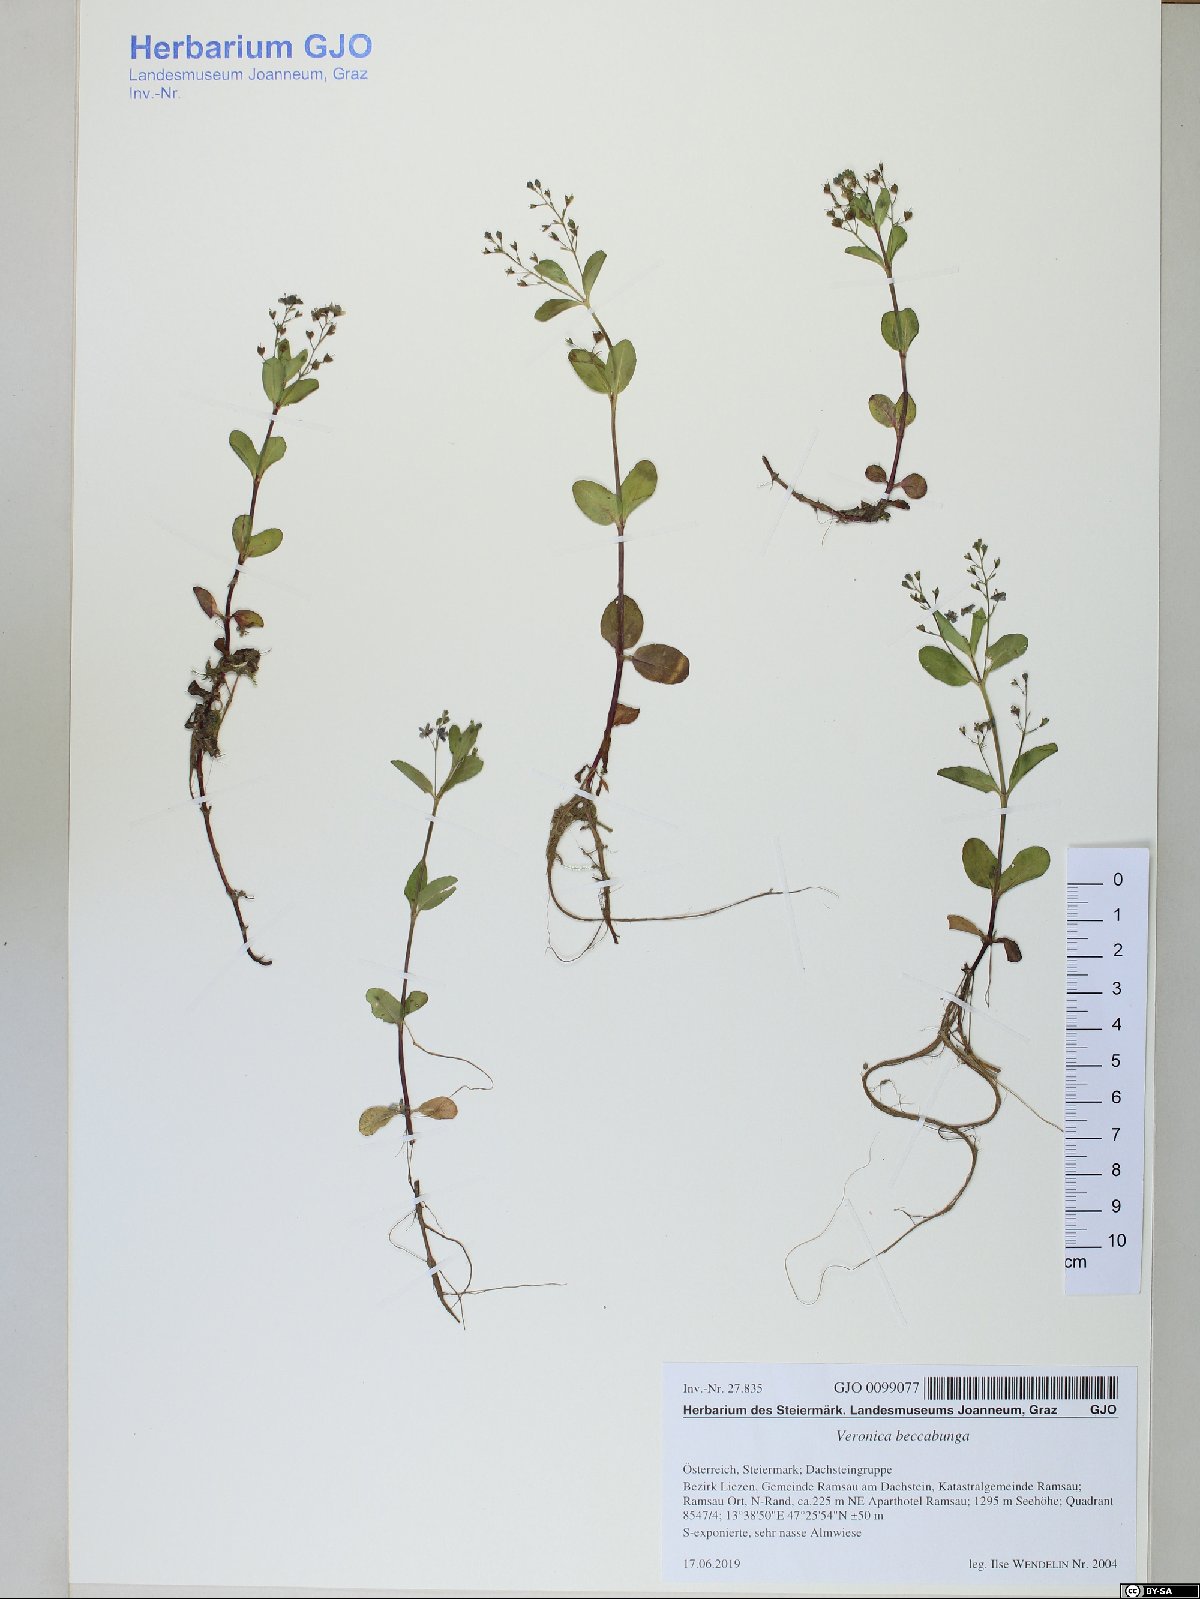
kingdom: Plantae
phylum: Tracheophyta
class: Magnoliopsida
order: Lamiales
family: Plantaginaceae
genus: Veronica
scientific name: Veronica beccabunga
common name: Brooklime
